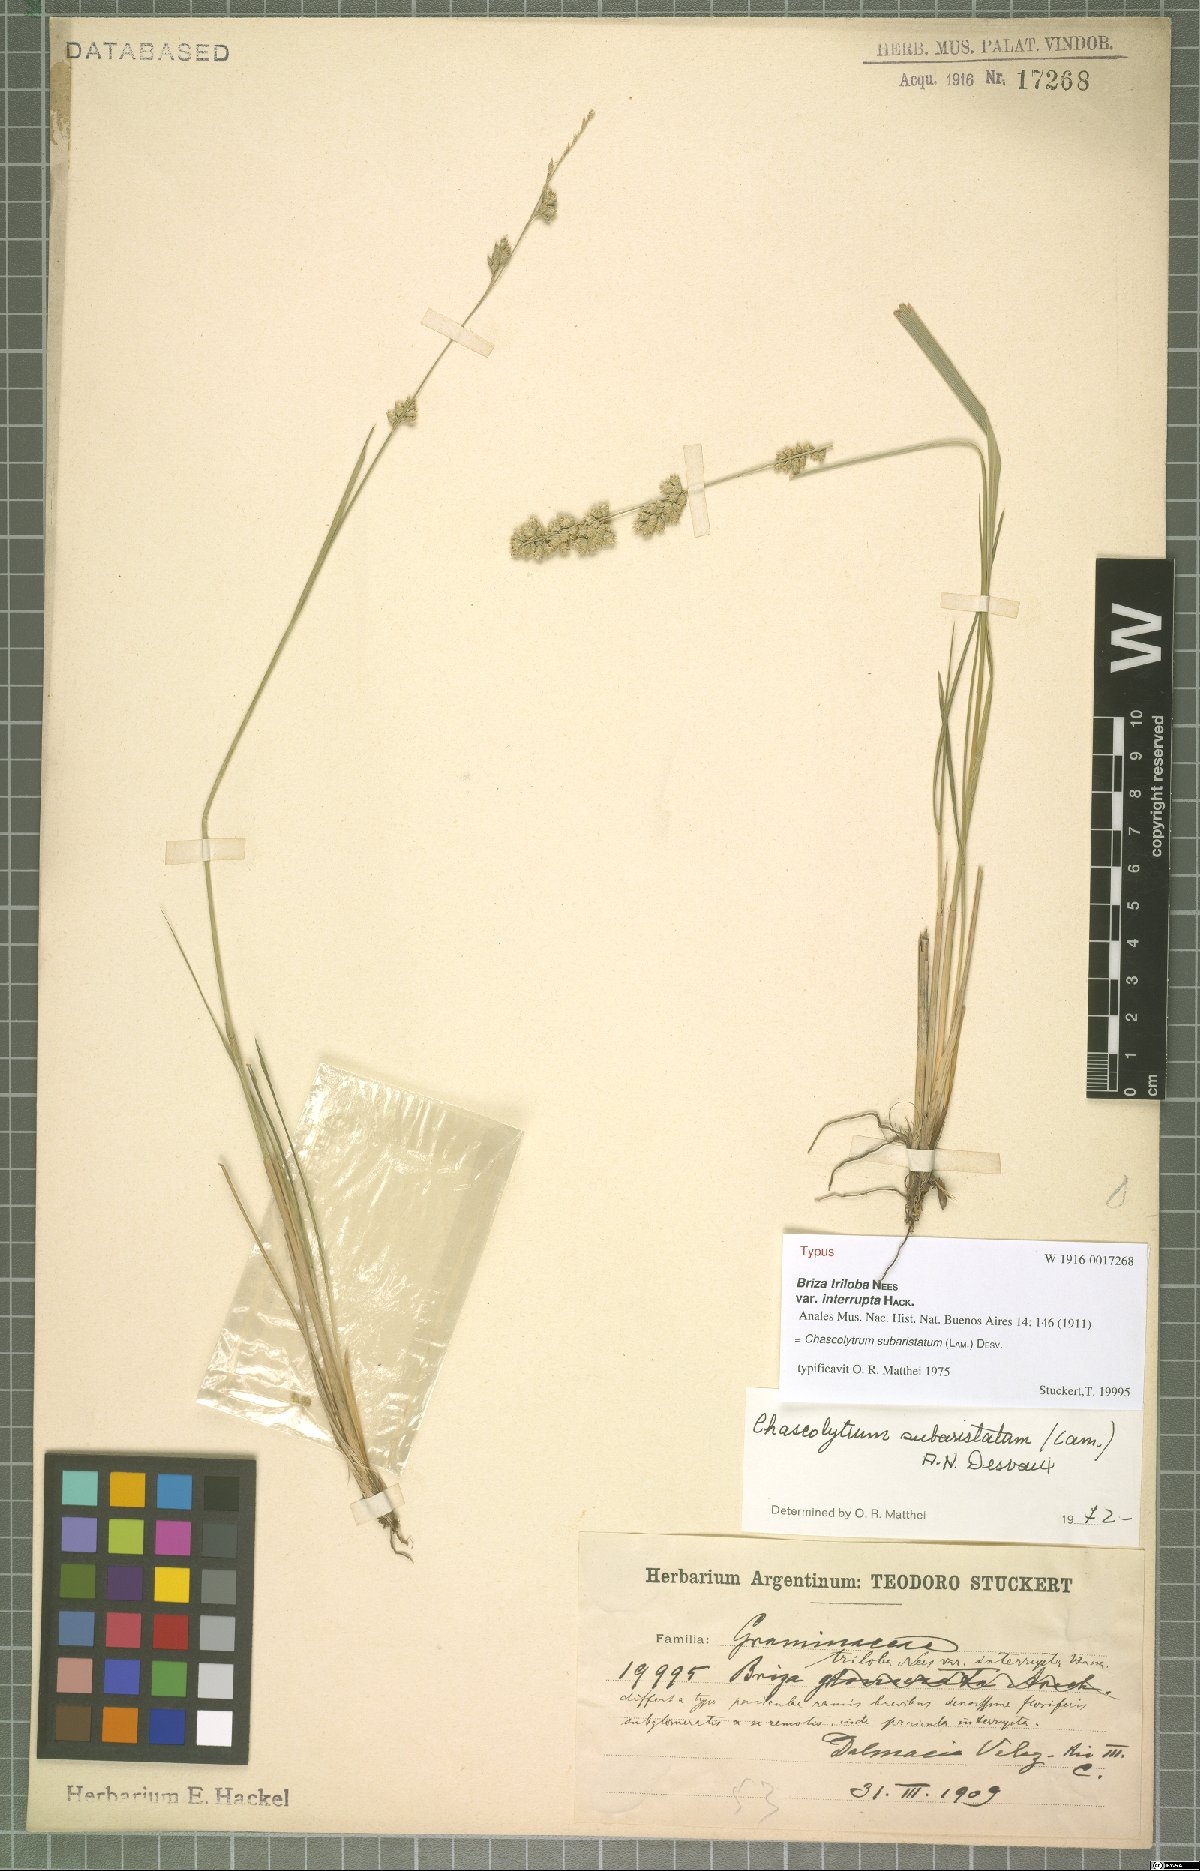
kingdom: Plantae
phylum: Tracheophyta
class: Liliopsida
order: Poales
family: Poaceae
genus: Chascolytrum
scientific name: Chascolytrum subaristatum
